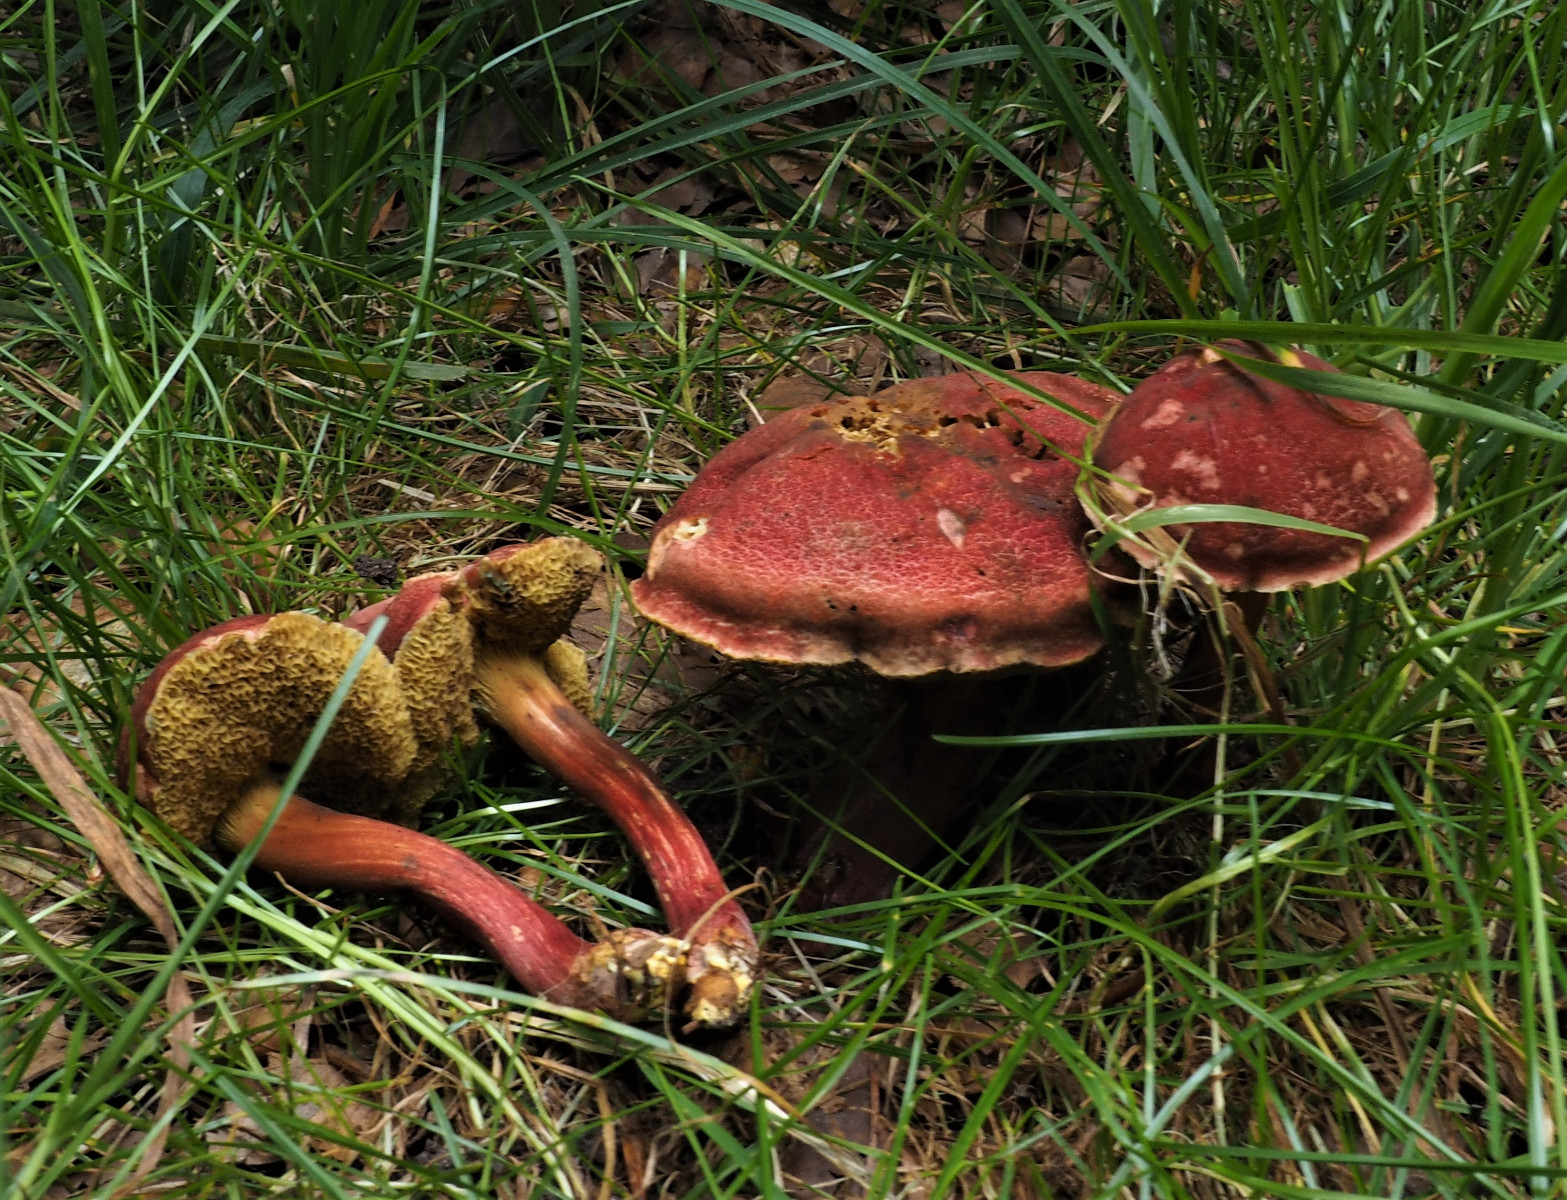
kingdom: Fungi
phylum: Basidiomycota
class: Agaricomycetes
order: Boletales
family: Boletaceae
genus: Hortiboletus
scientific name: Hortiboletus rubellus
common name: blodrød rørhat
